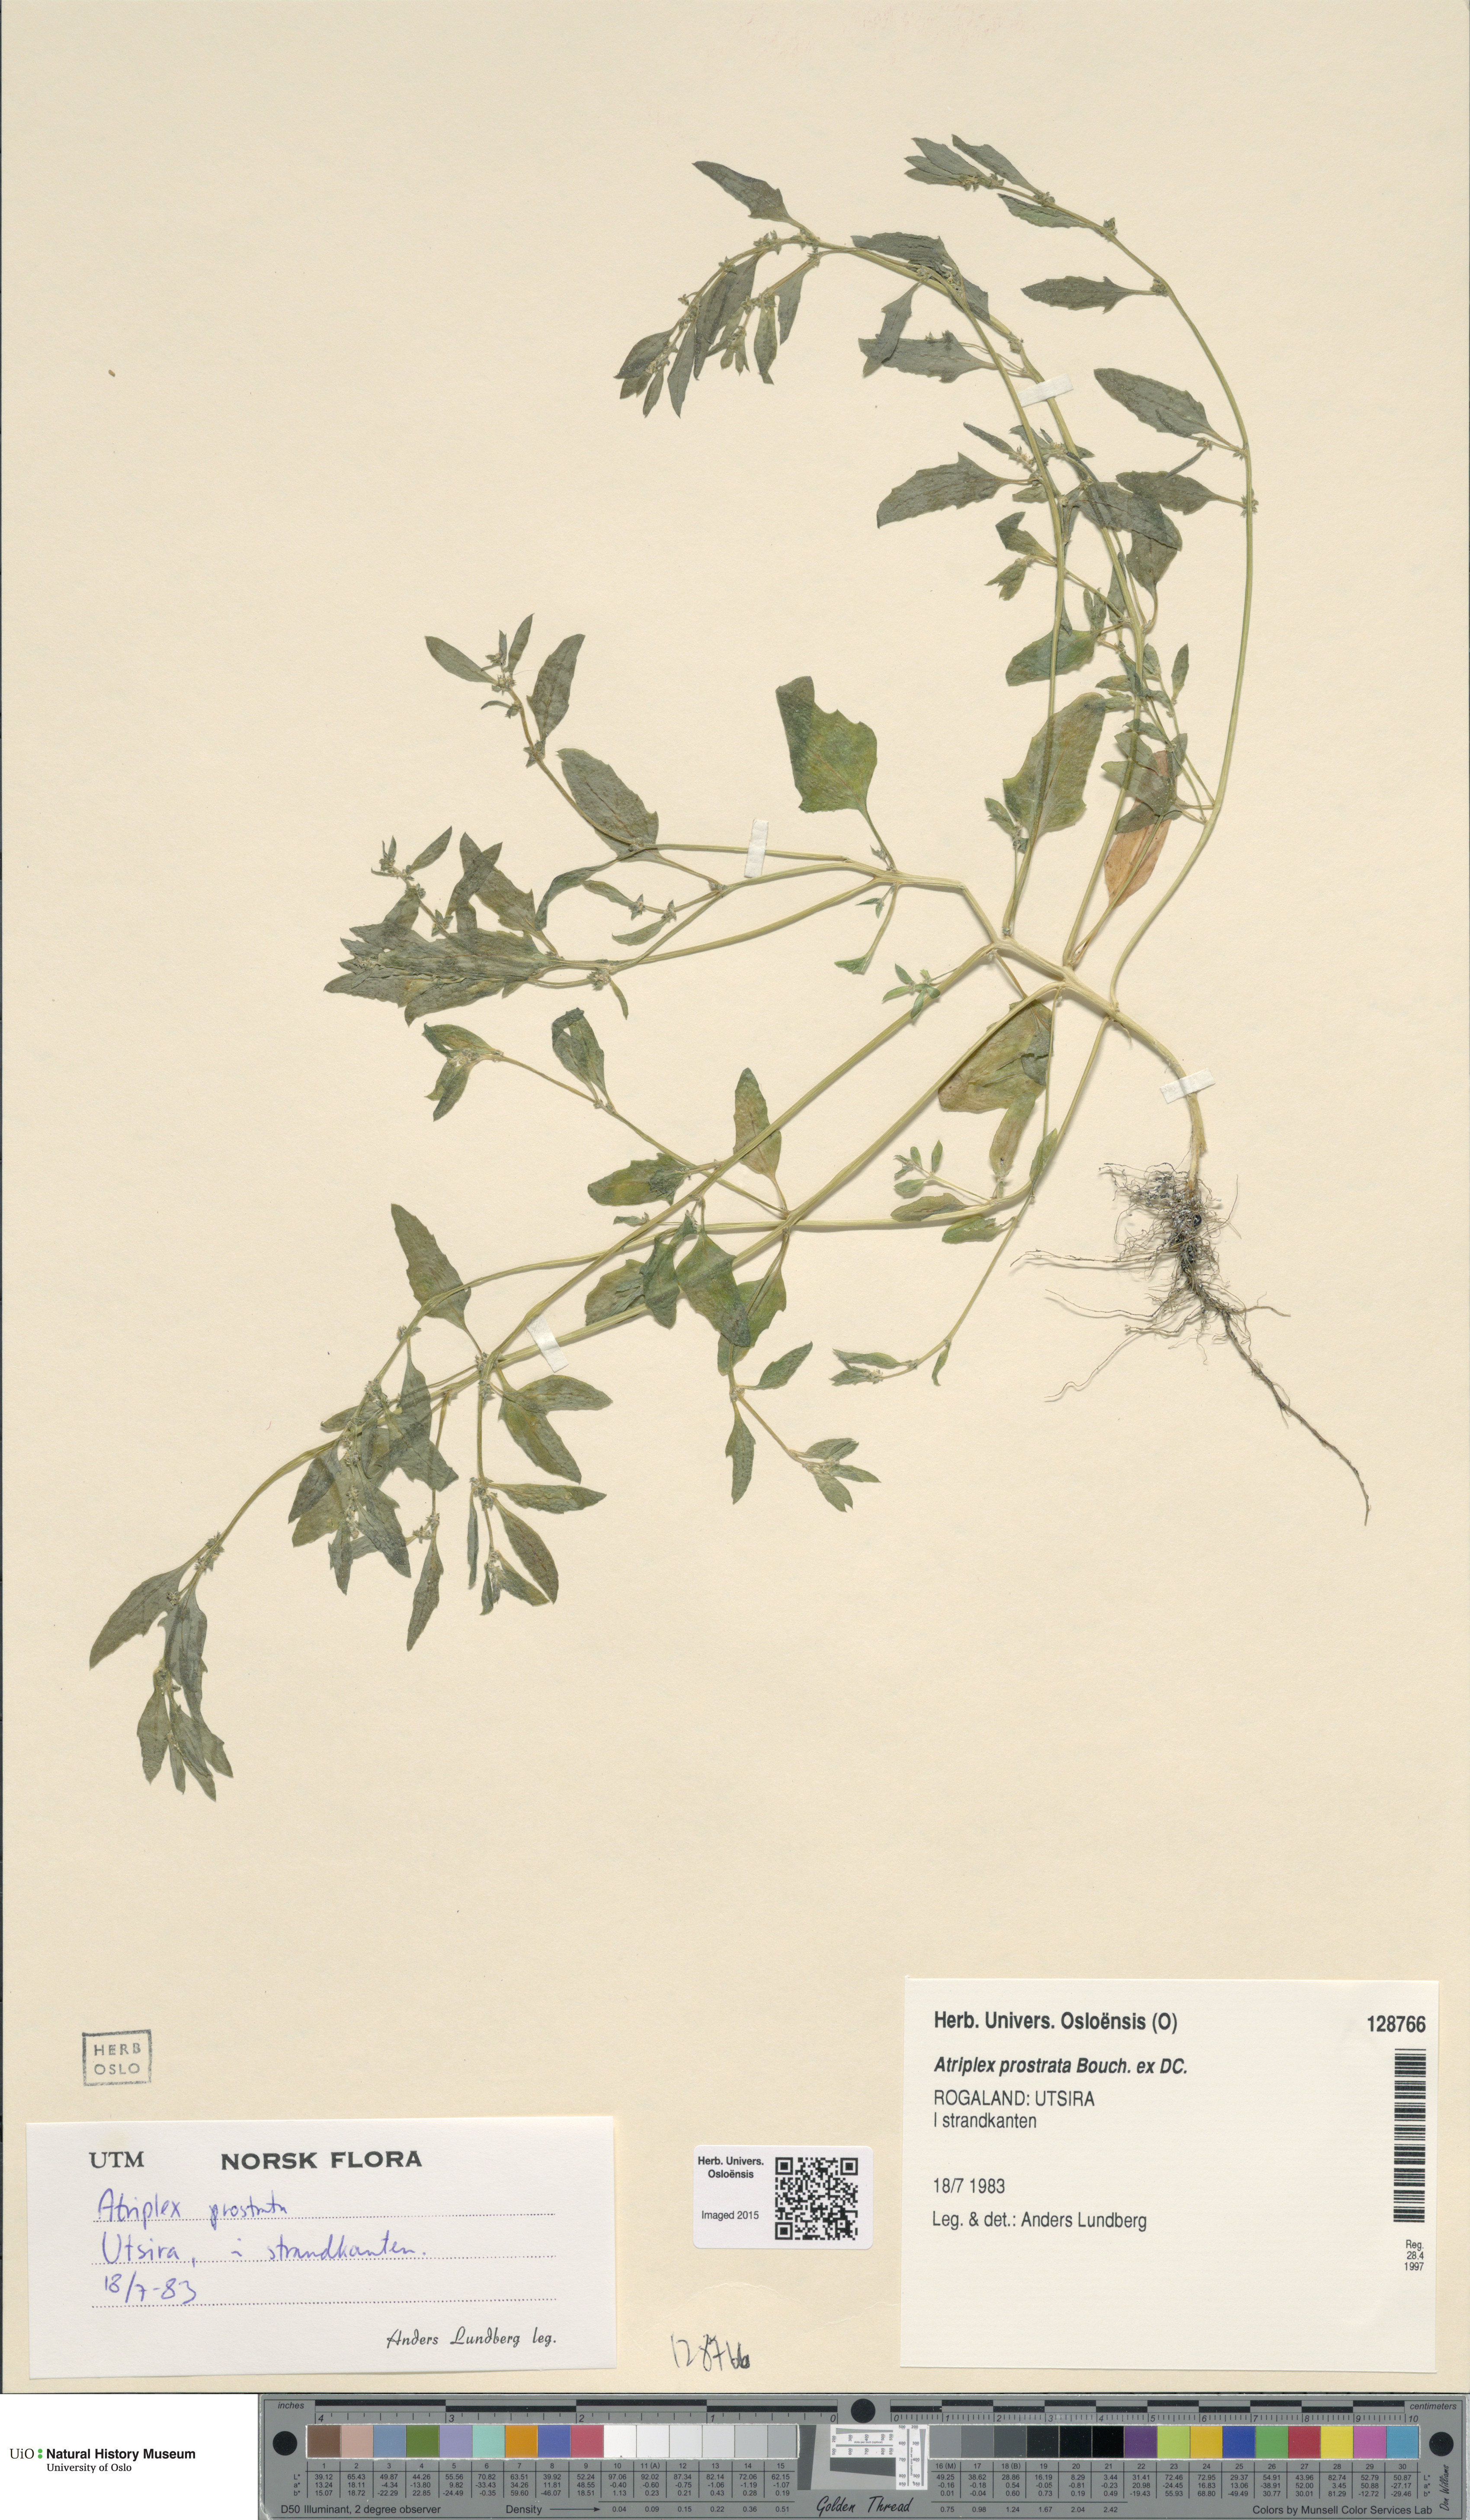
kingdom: Plantae
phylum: Tracheophyta
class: Magnoliopsida
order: Caryophyllales
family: Amaranthaceae
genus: Atriplex
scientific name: Atriplex prostrata
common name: Spear-leaved orache
